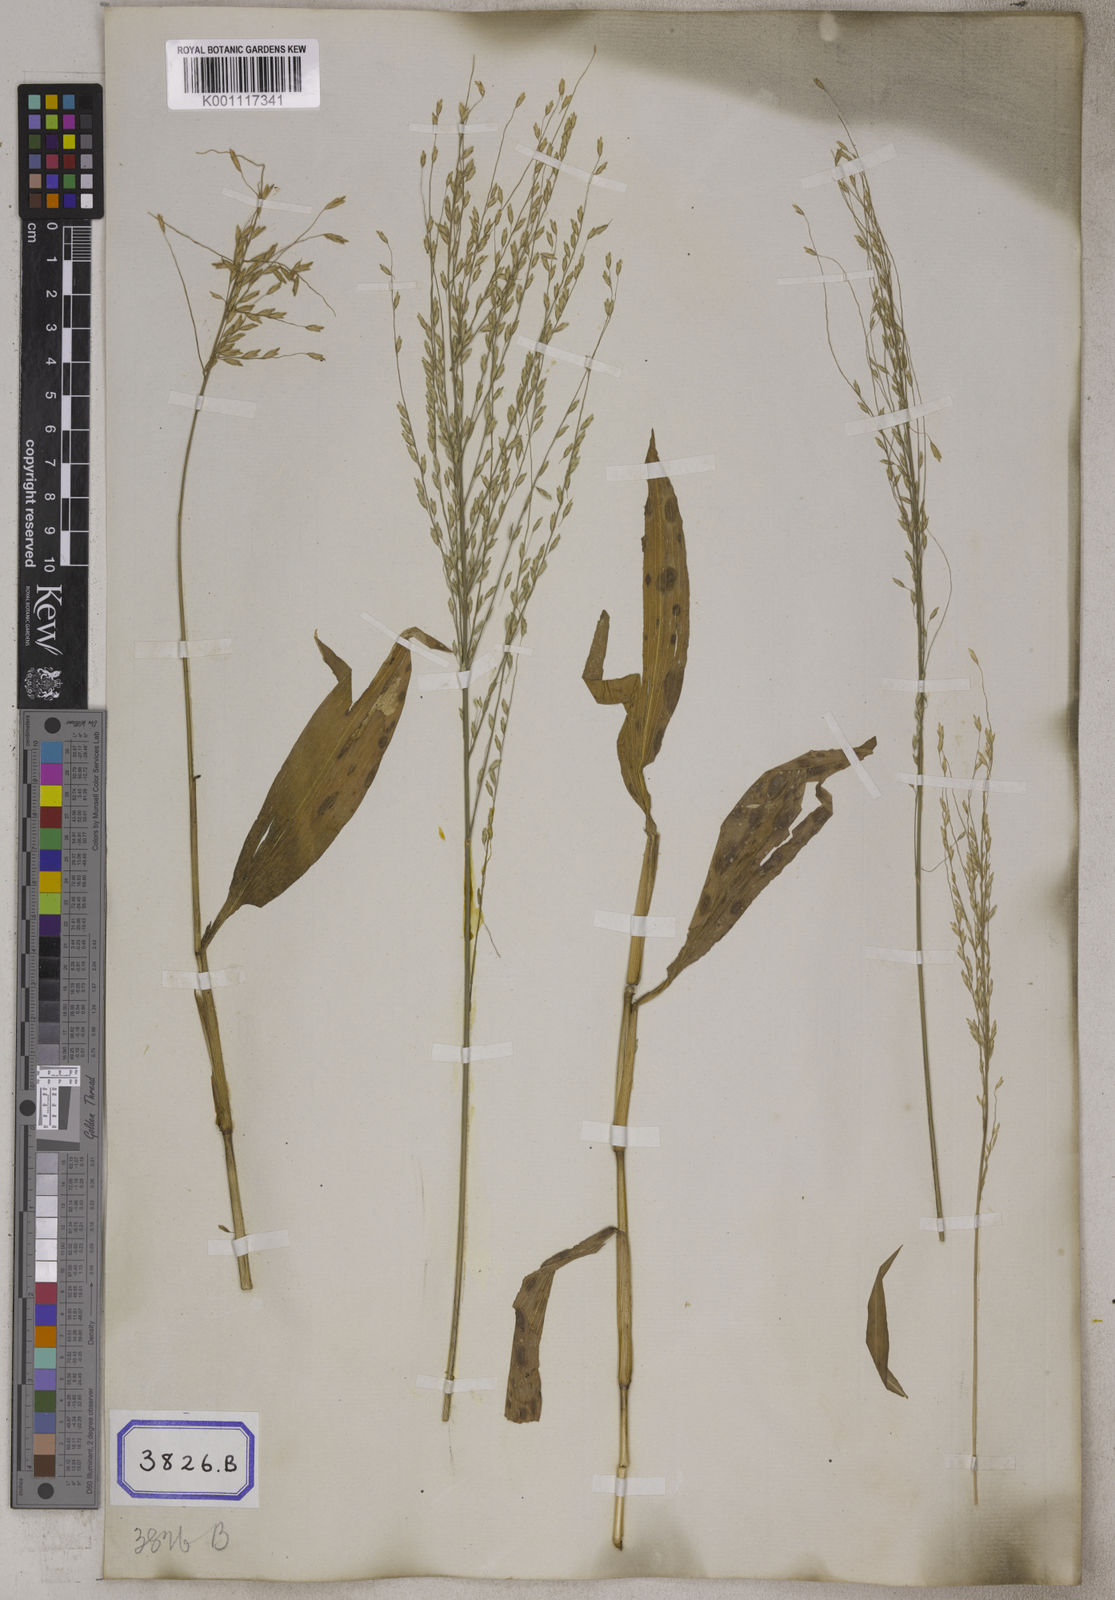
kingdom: Plantae
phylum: Tracheophyta
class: Liliopsida
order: Poales
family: Poaceae
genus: Centotheca
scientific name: Centotheca lappacea
